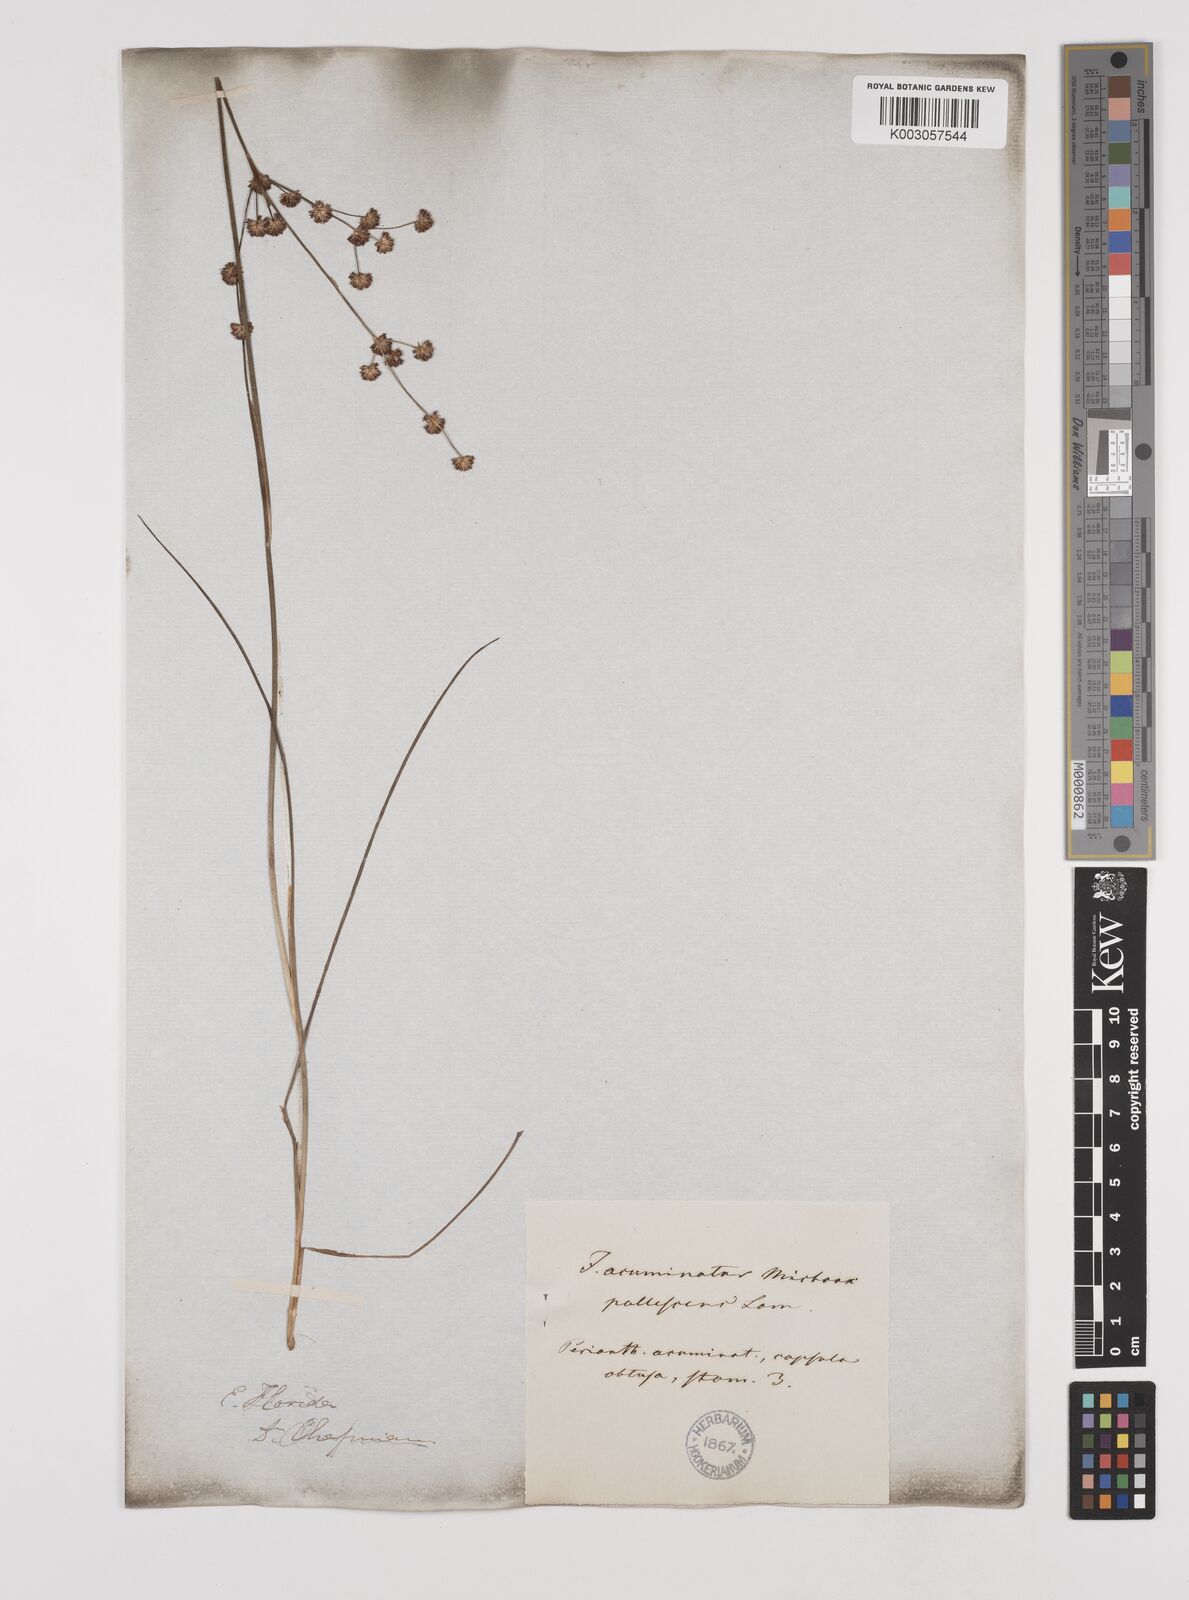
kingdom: Plantae
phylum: Tracheophyta
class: Liliopsida
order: Poales
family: Juncaceae
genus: Juncus
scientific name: Juncus acuminatus
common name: Knotty-leaved rush
